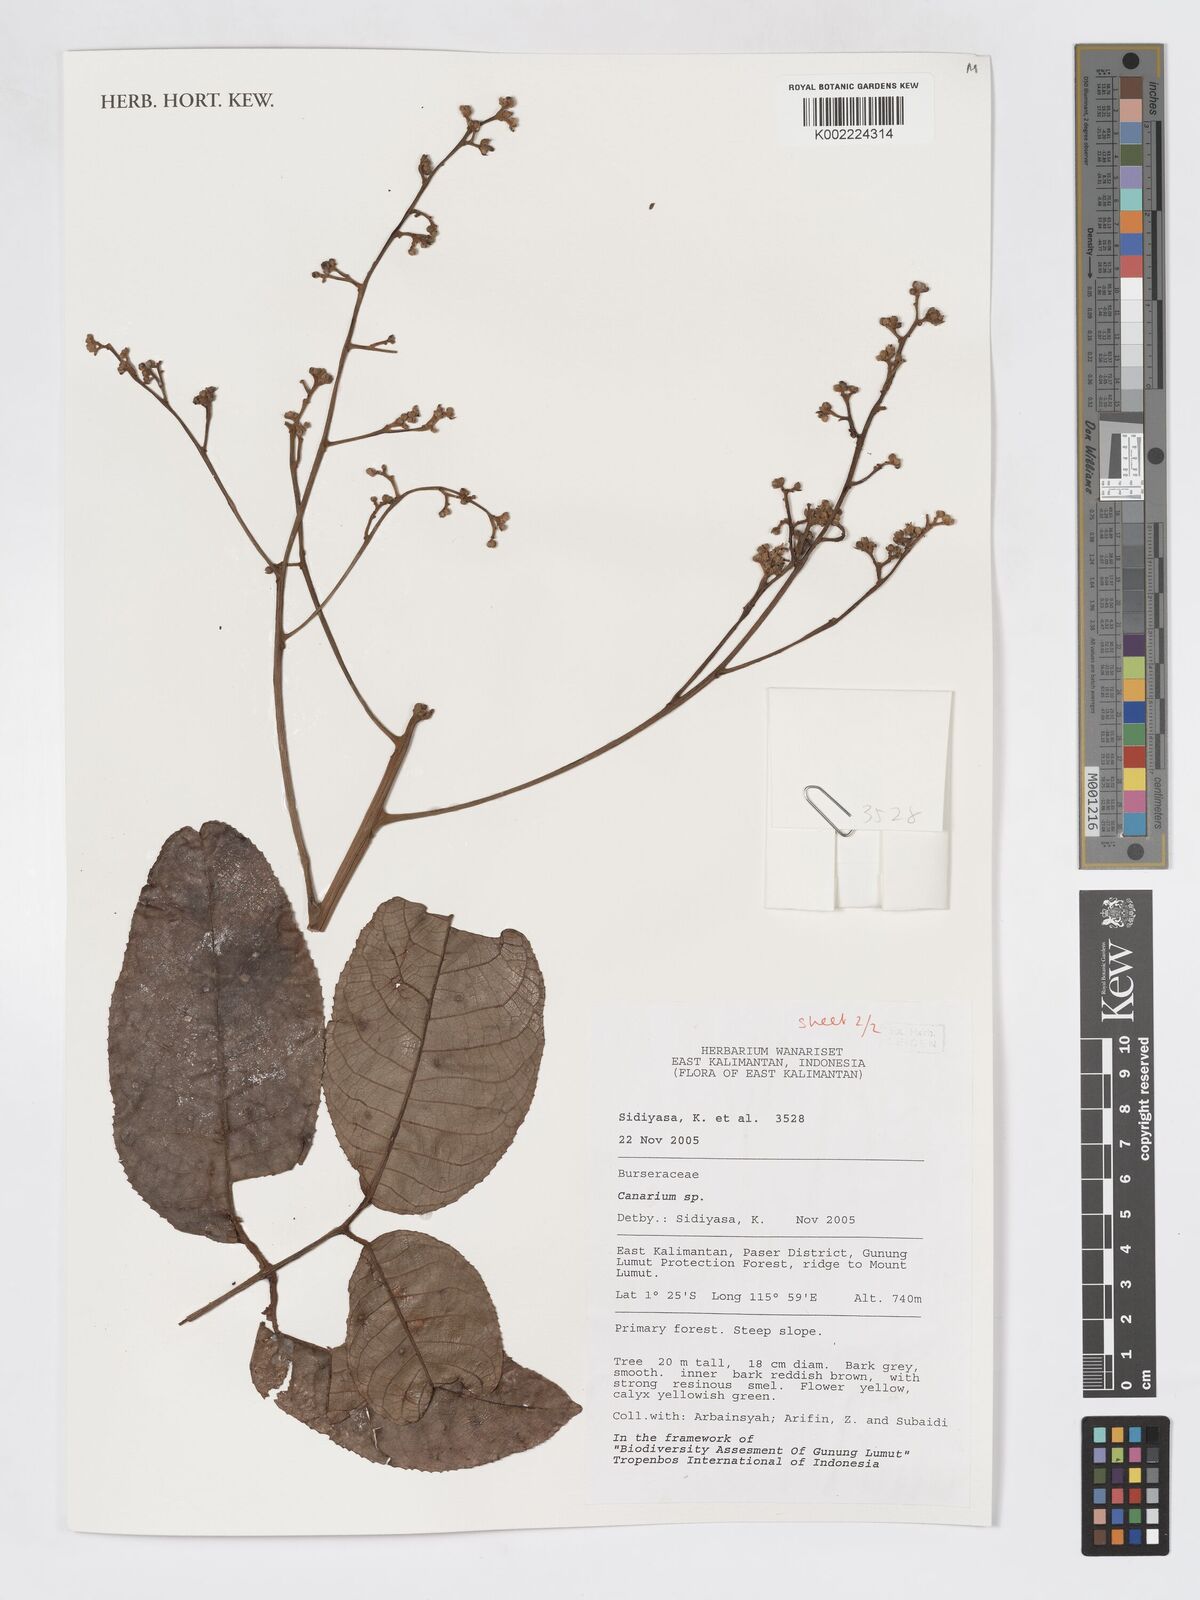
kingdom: Plantae
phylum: Tracheophyta
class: Magnoliopsida
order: Sapindales
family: Burseraceae
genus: Canarium
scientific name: Canarium
